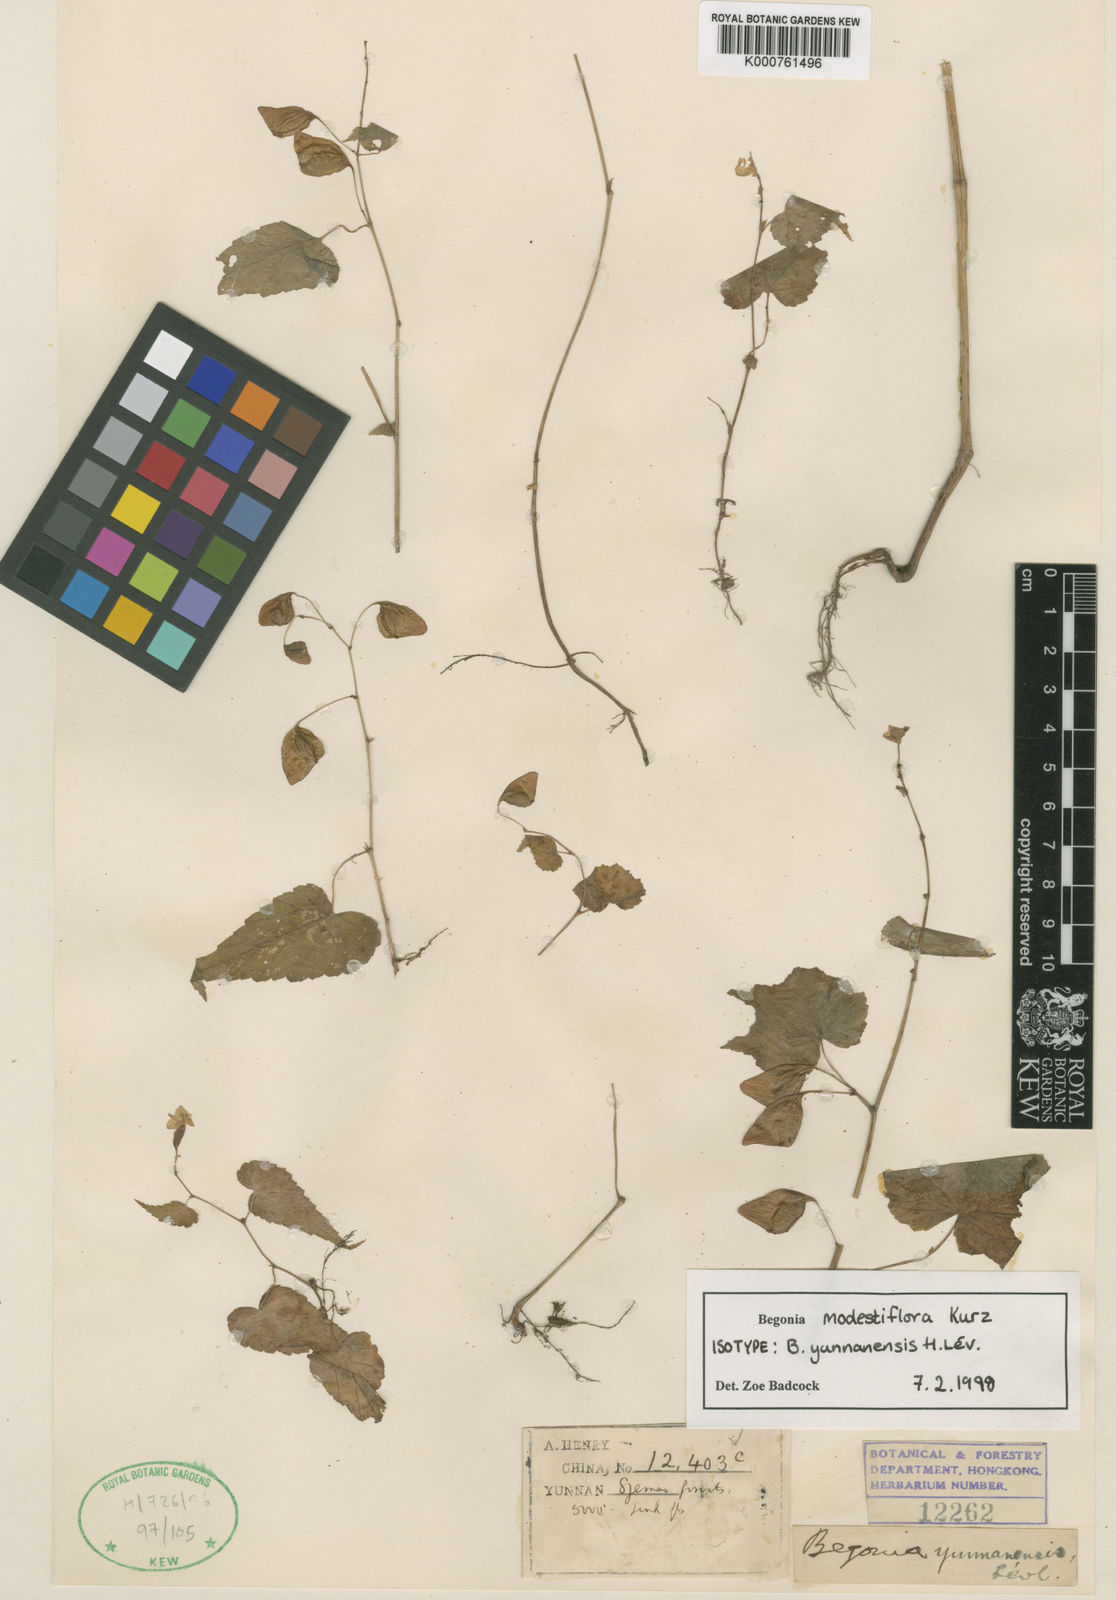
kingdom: Plantae
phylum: Tracheophyta
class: Magnoliopsida
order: Cucurbitales
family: Begoniaceae
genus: Begonia
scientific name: Begonia modestiflora
